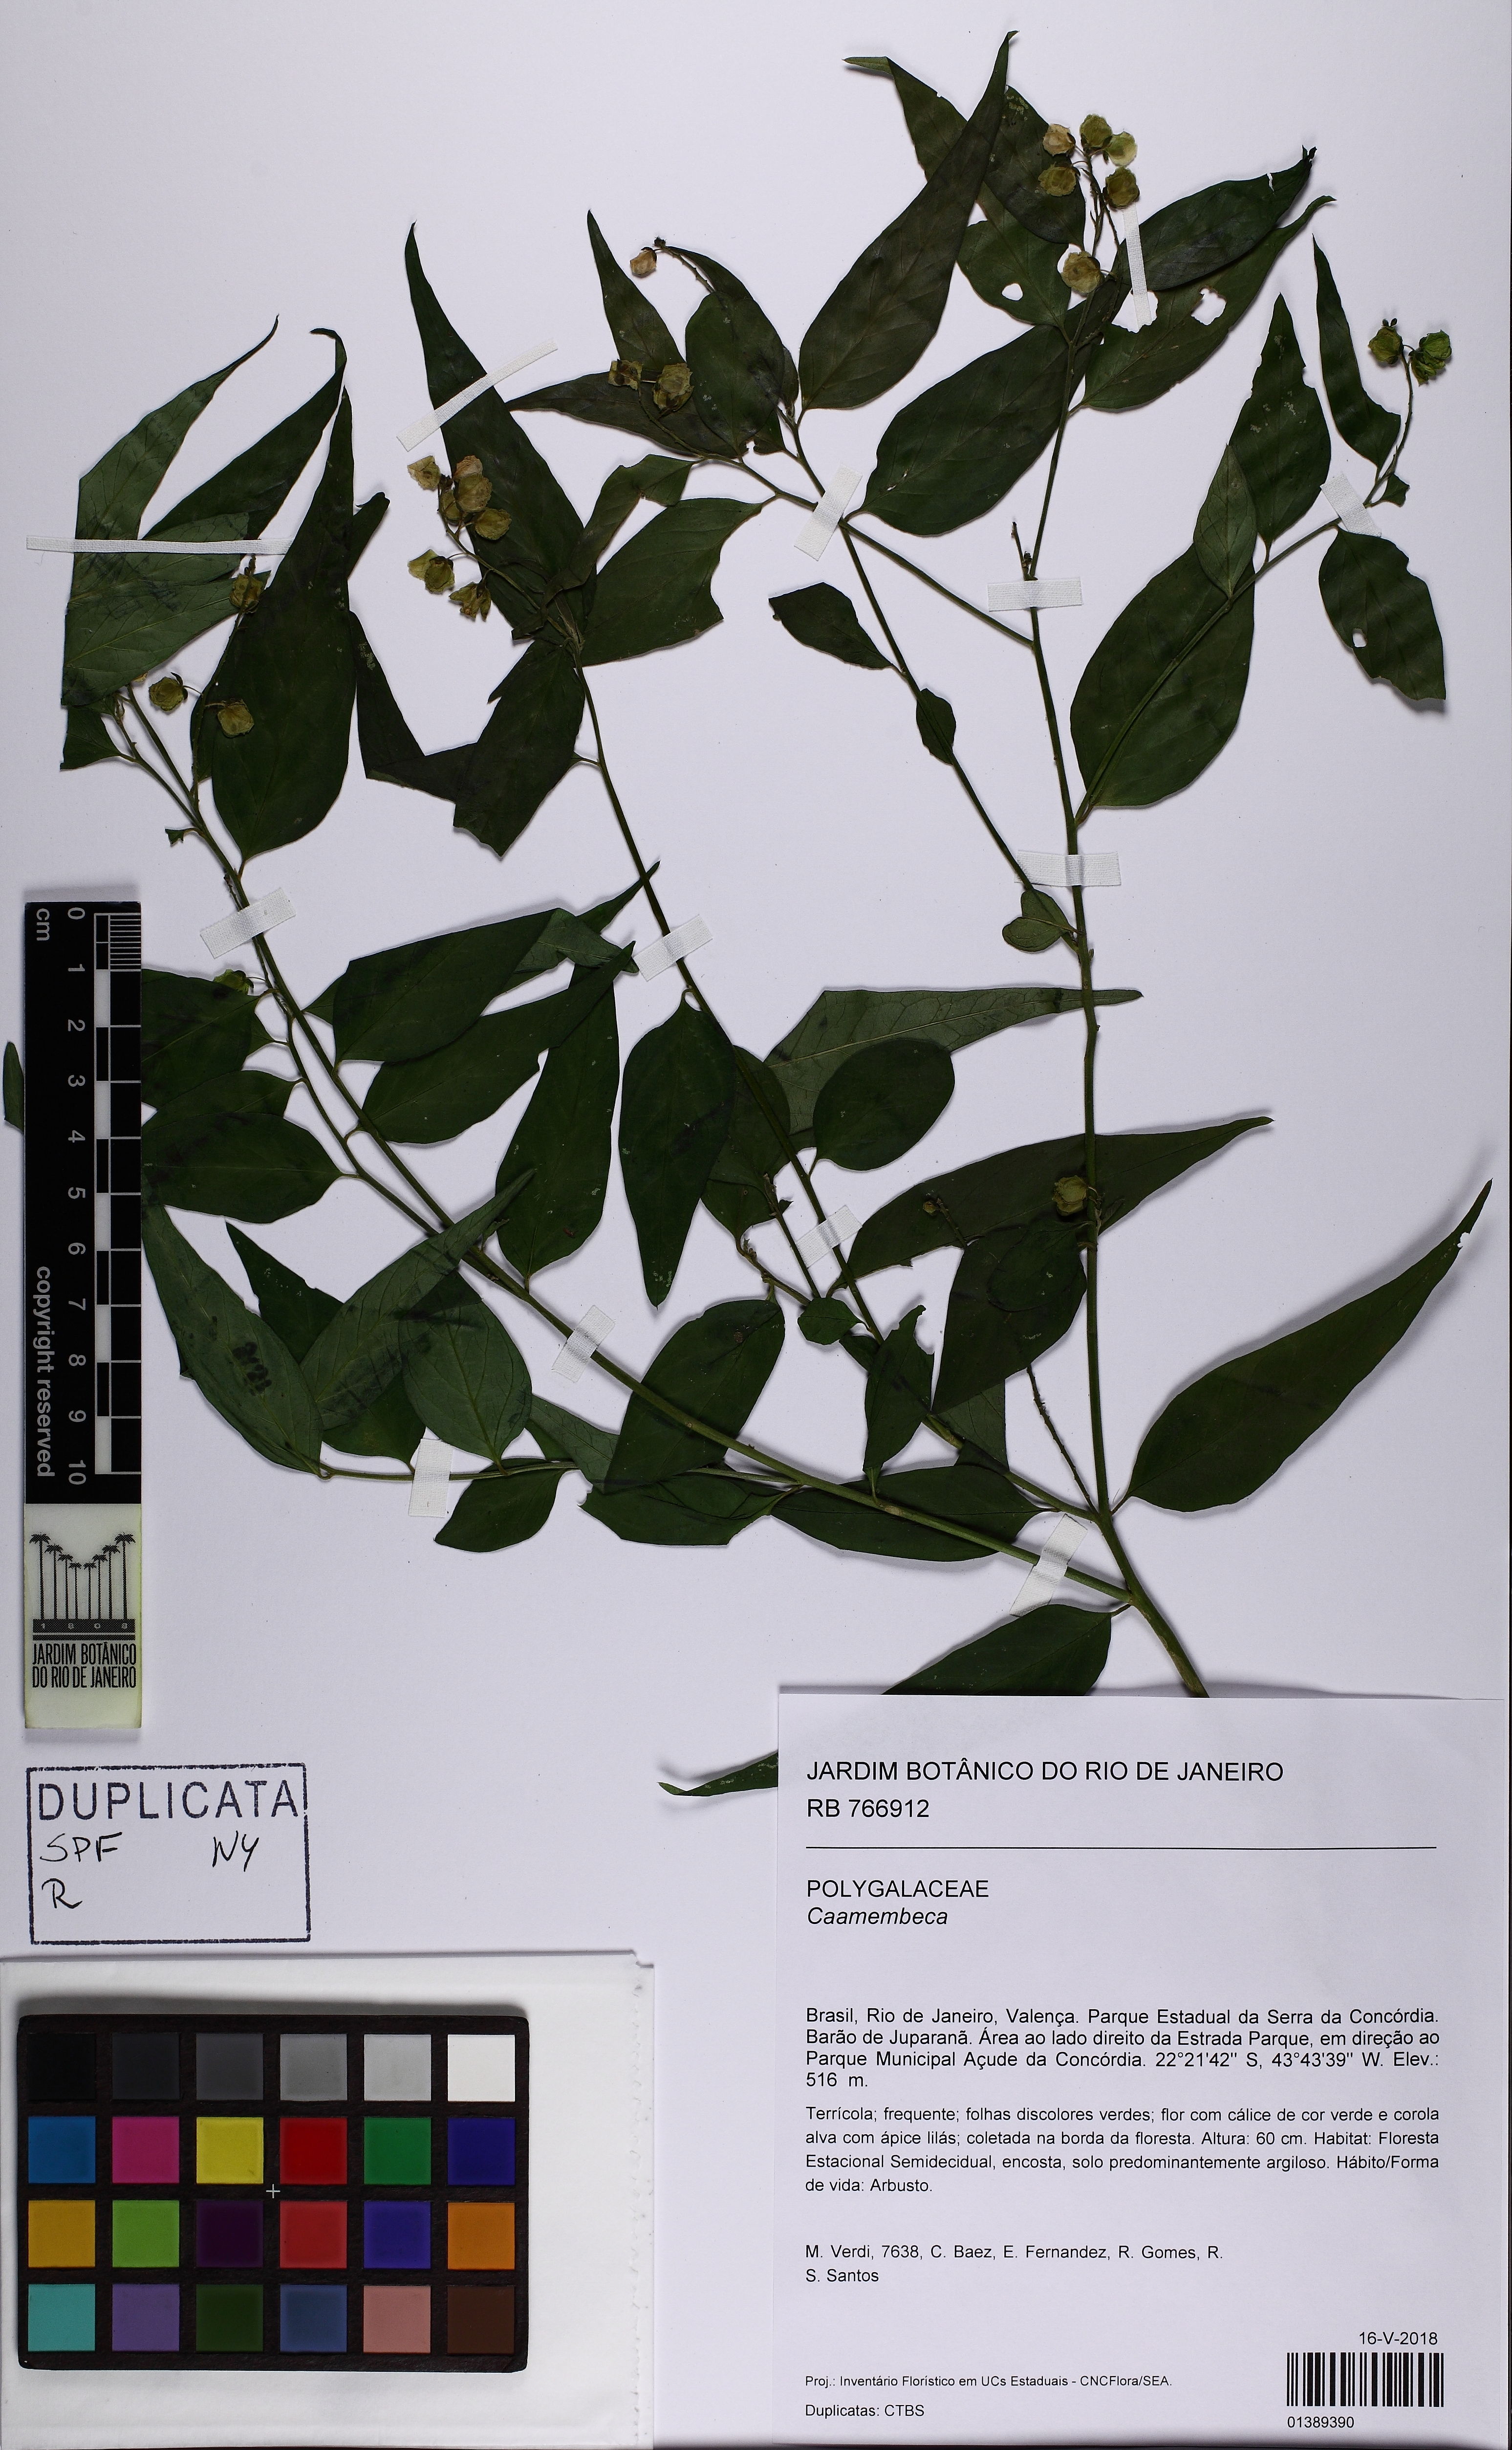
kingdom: Plantae
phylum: Tracheophyta
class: Magnoliopsida
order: Fabales
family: Polygalaceae
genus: Caamembeca
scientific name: Caamembeca
